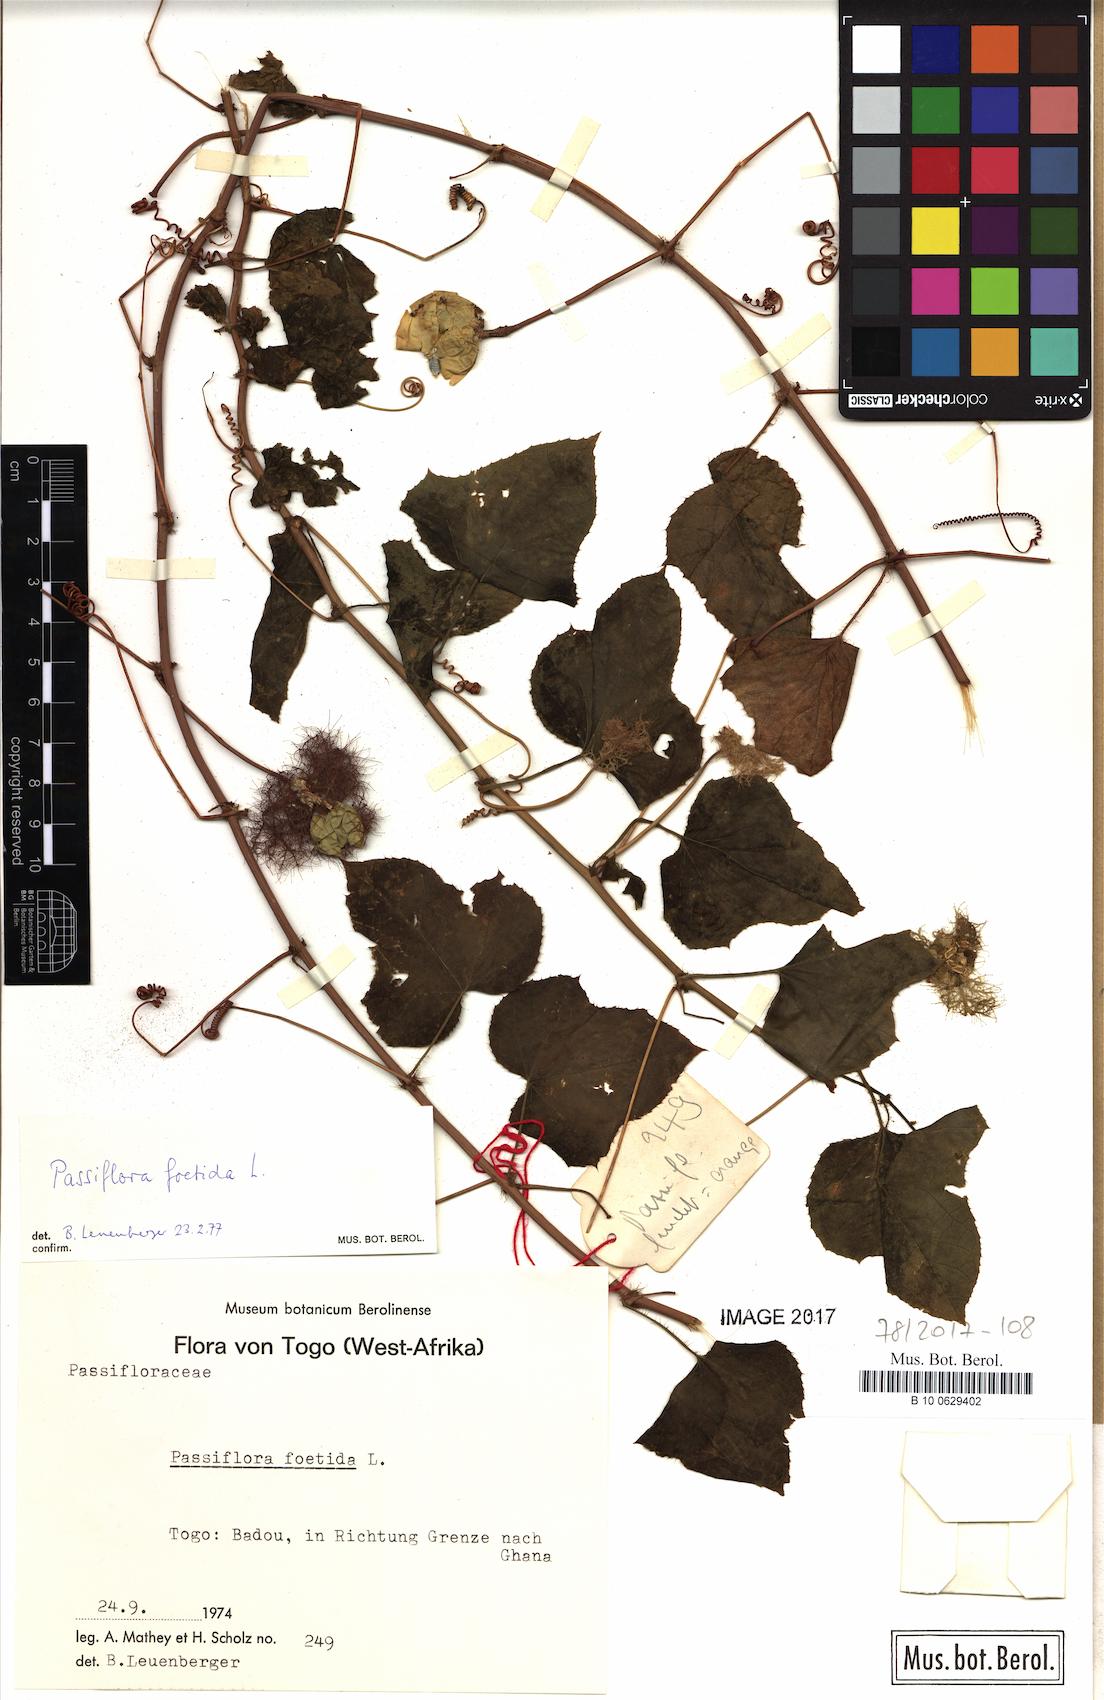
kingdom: Plantae
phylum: Tracheophyta
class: Magnoliopsida
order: Malpighiales
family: Passifloraceae
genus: Passiflora
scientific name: Passiflora foetida
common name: Fetid passionflower
